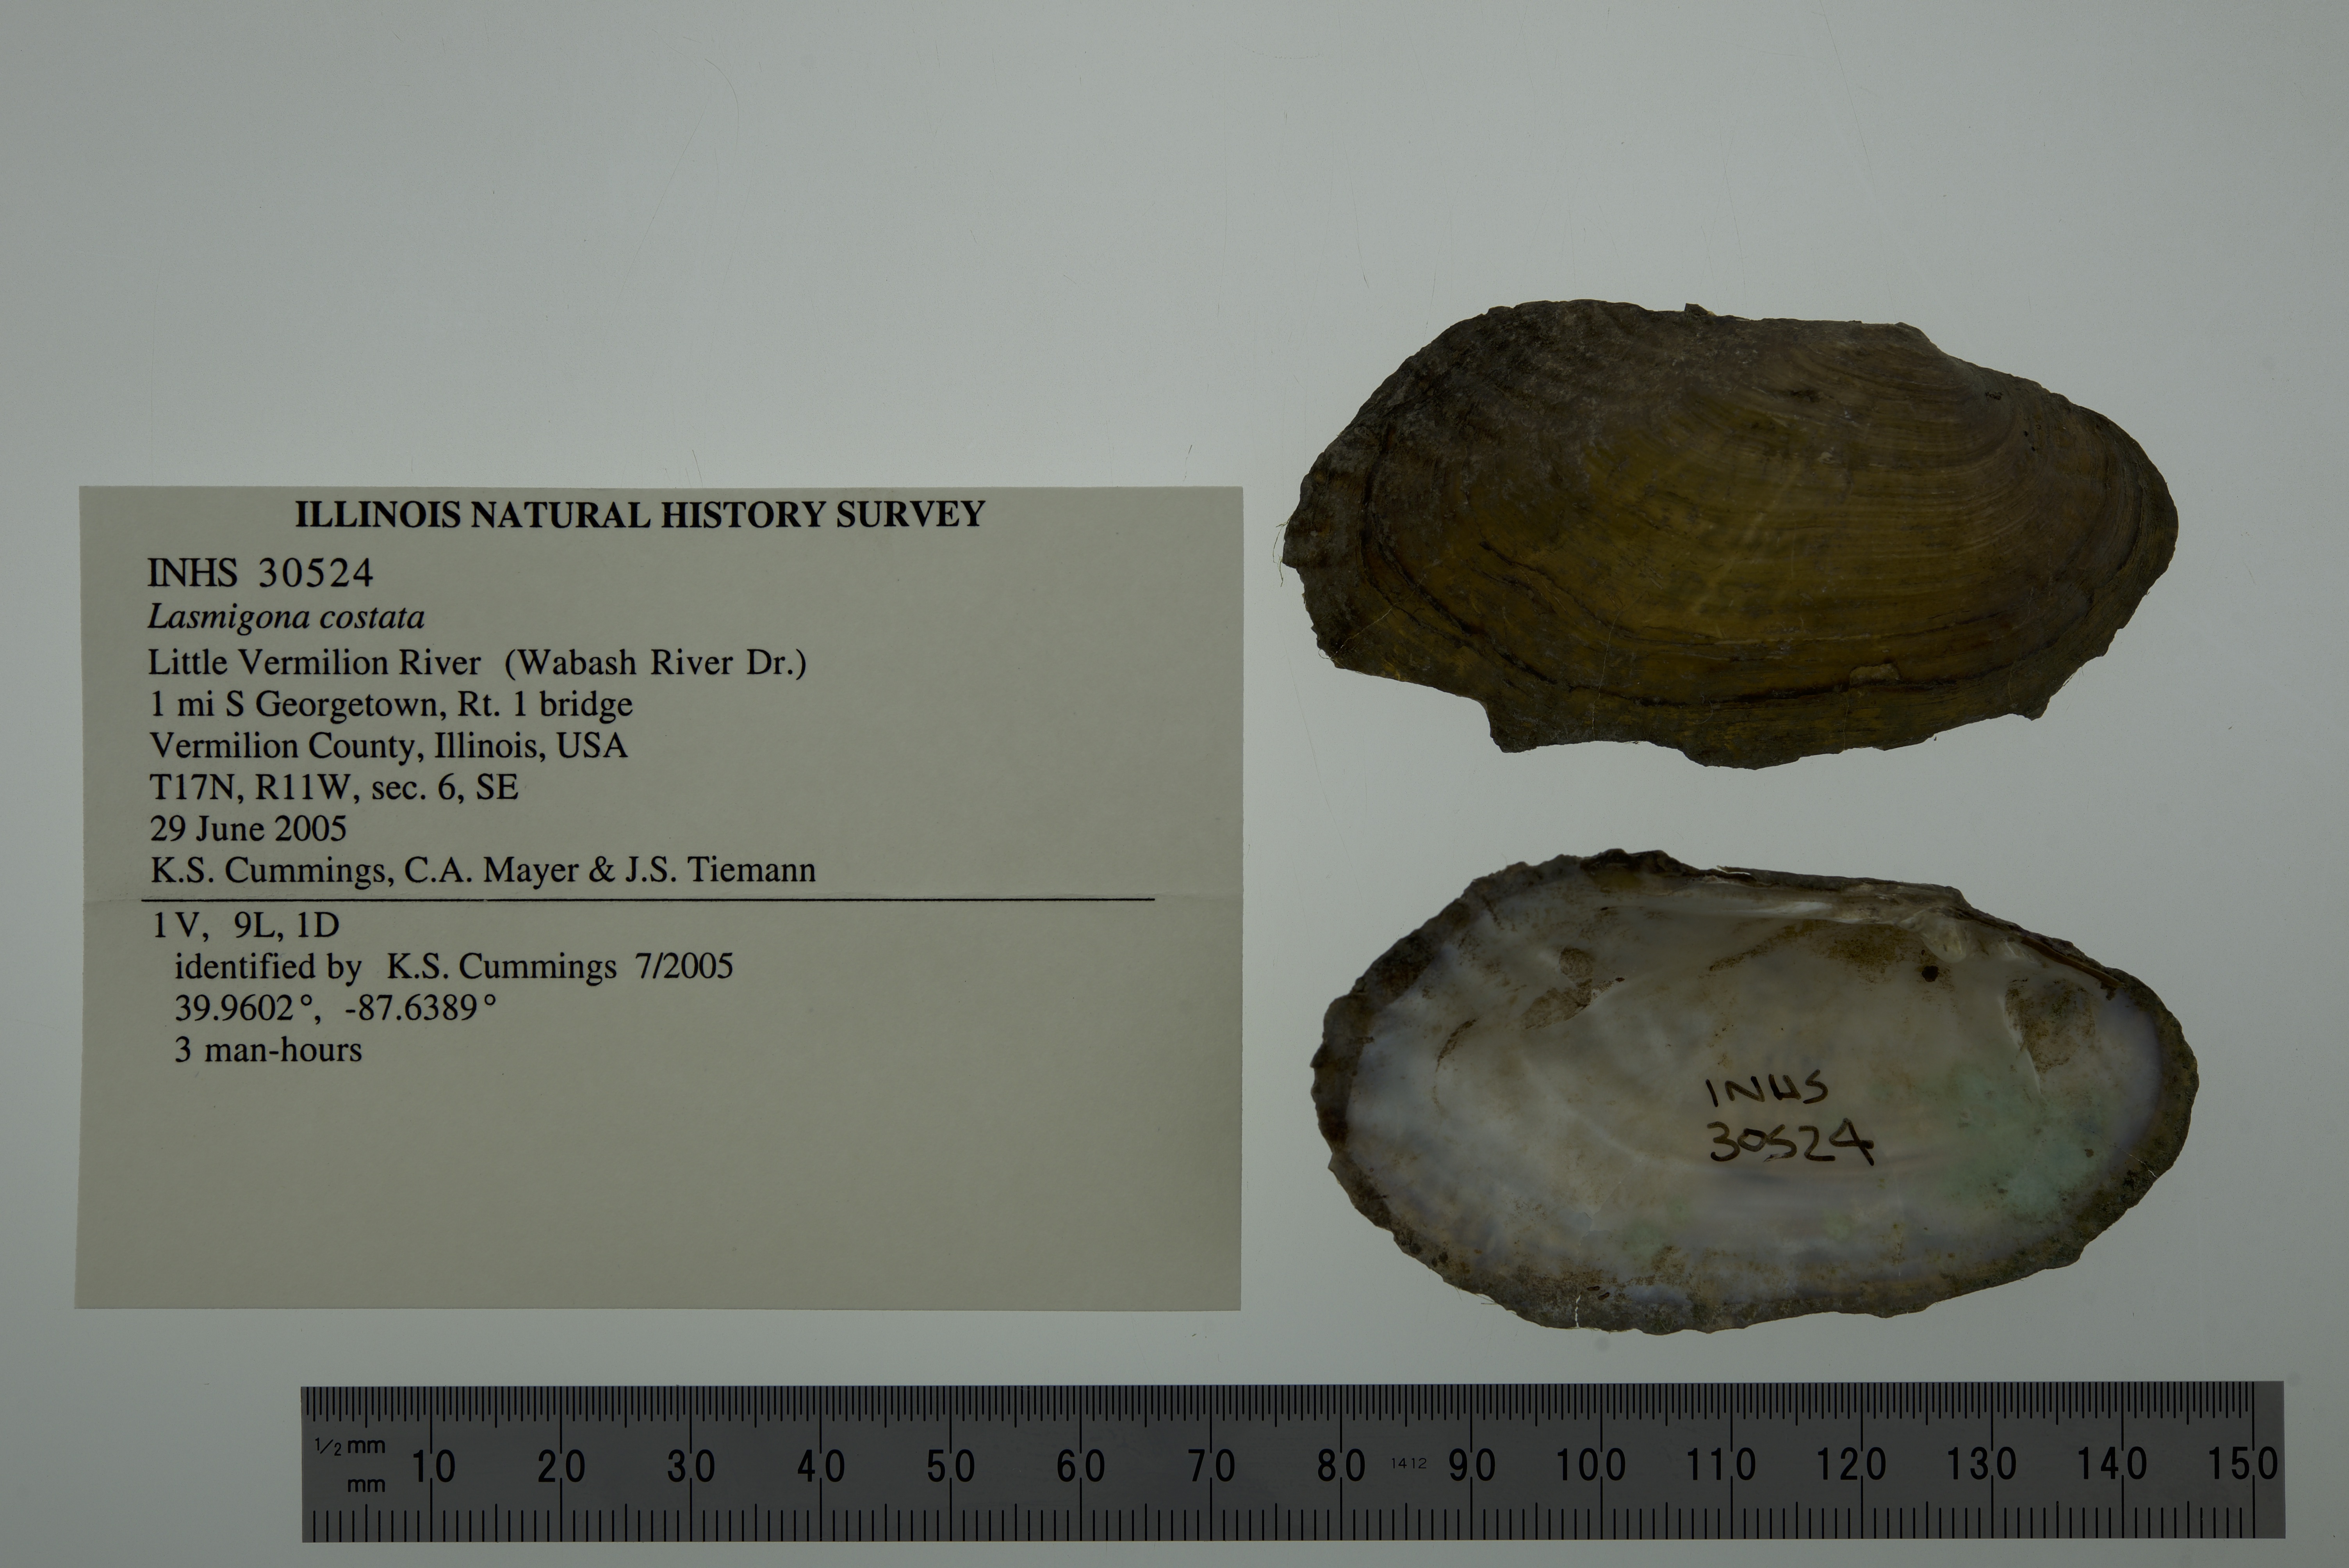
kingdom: Animalia
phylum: Mollusca
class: Bivalvia
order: Unionida
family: Unionidae
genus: Lasmigona
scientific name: Lasmigona costata
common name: Flutedshell
